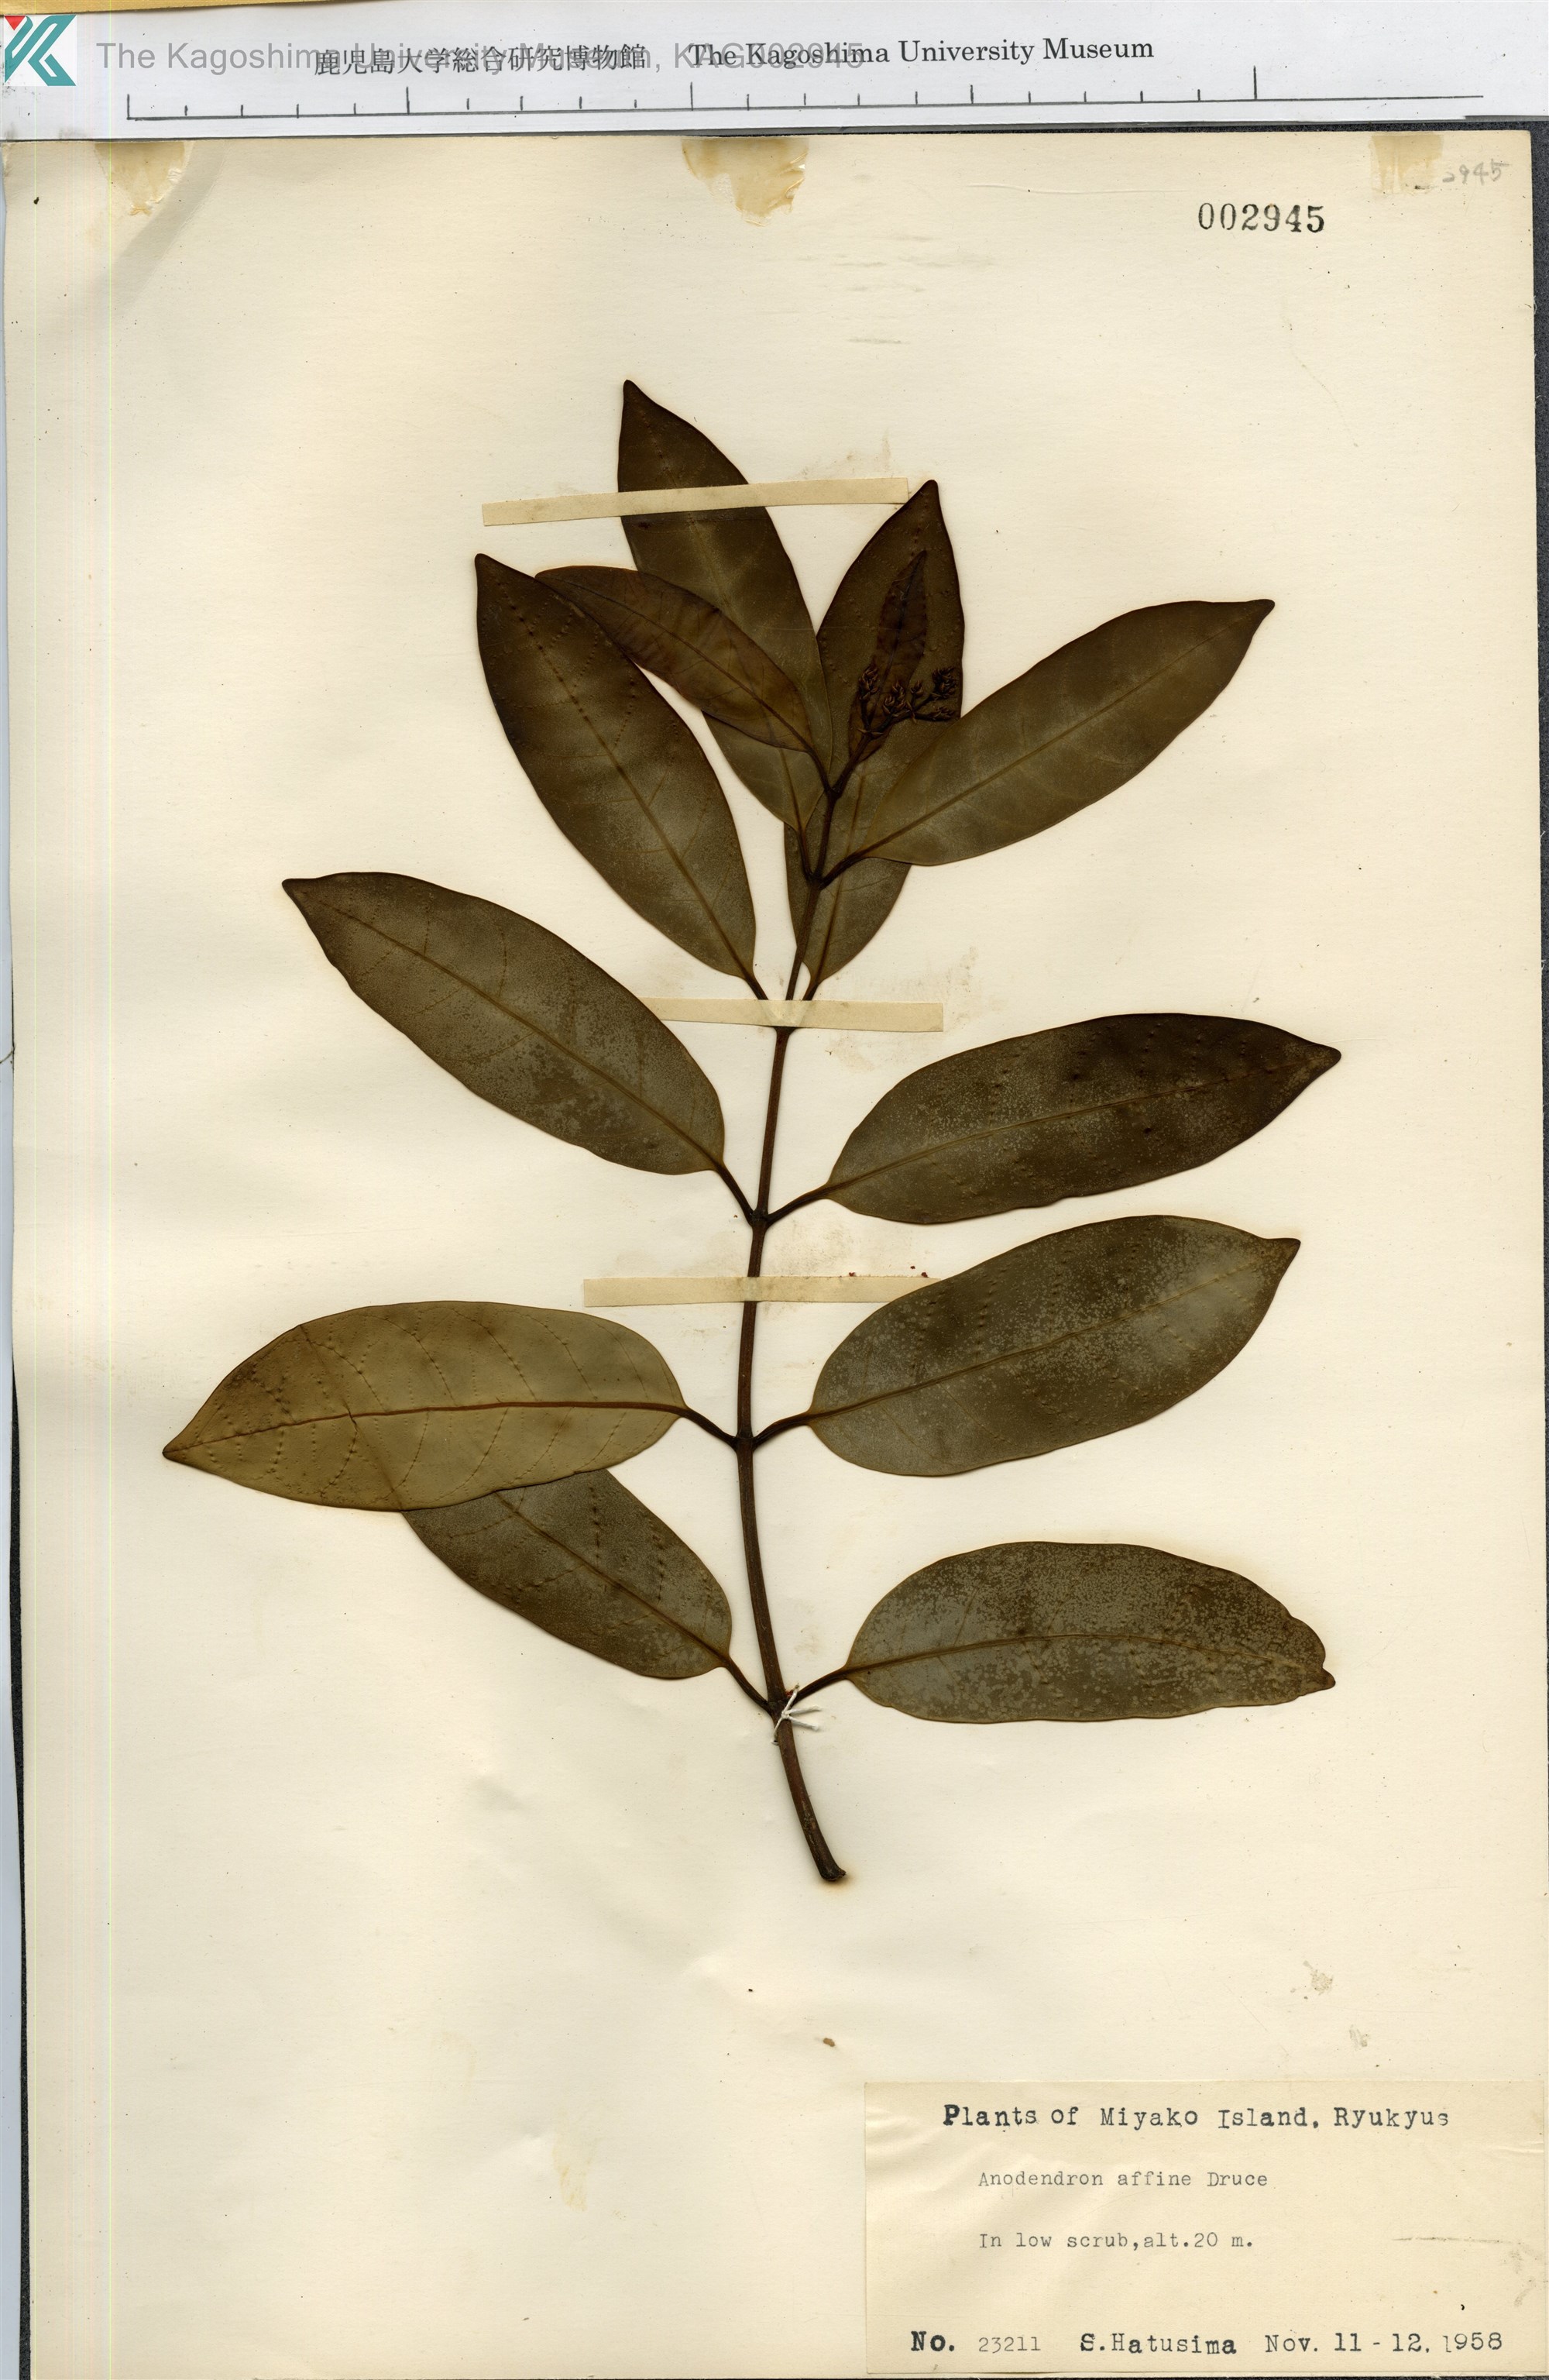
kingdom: Plantae
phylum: Tracheophyta
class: Magnoliopsida
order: Gentianales
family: Apocynaceae
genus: Anodendron
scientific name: Anodendron affine
